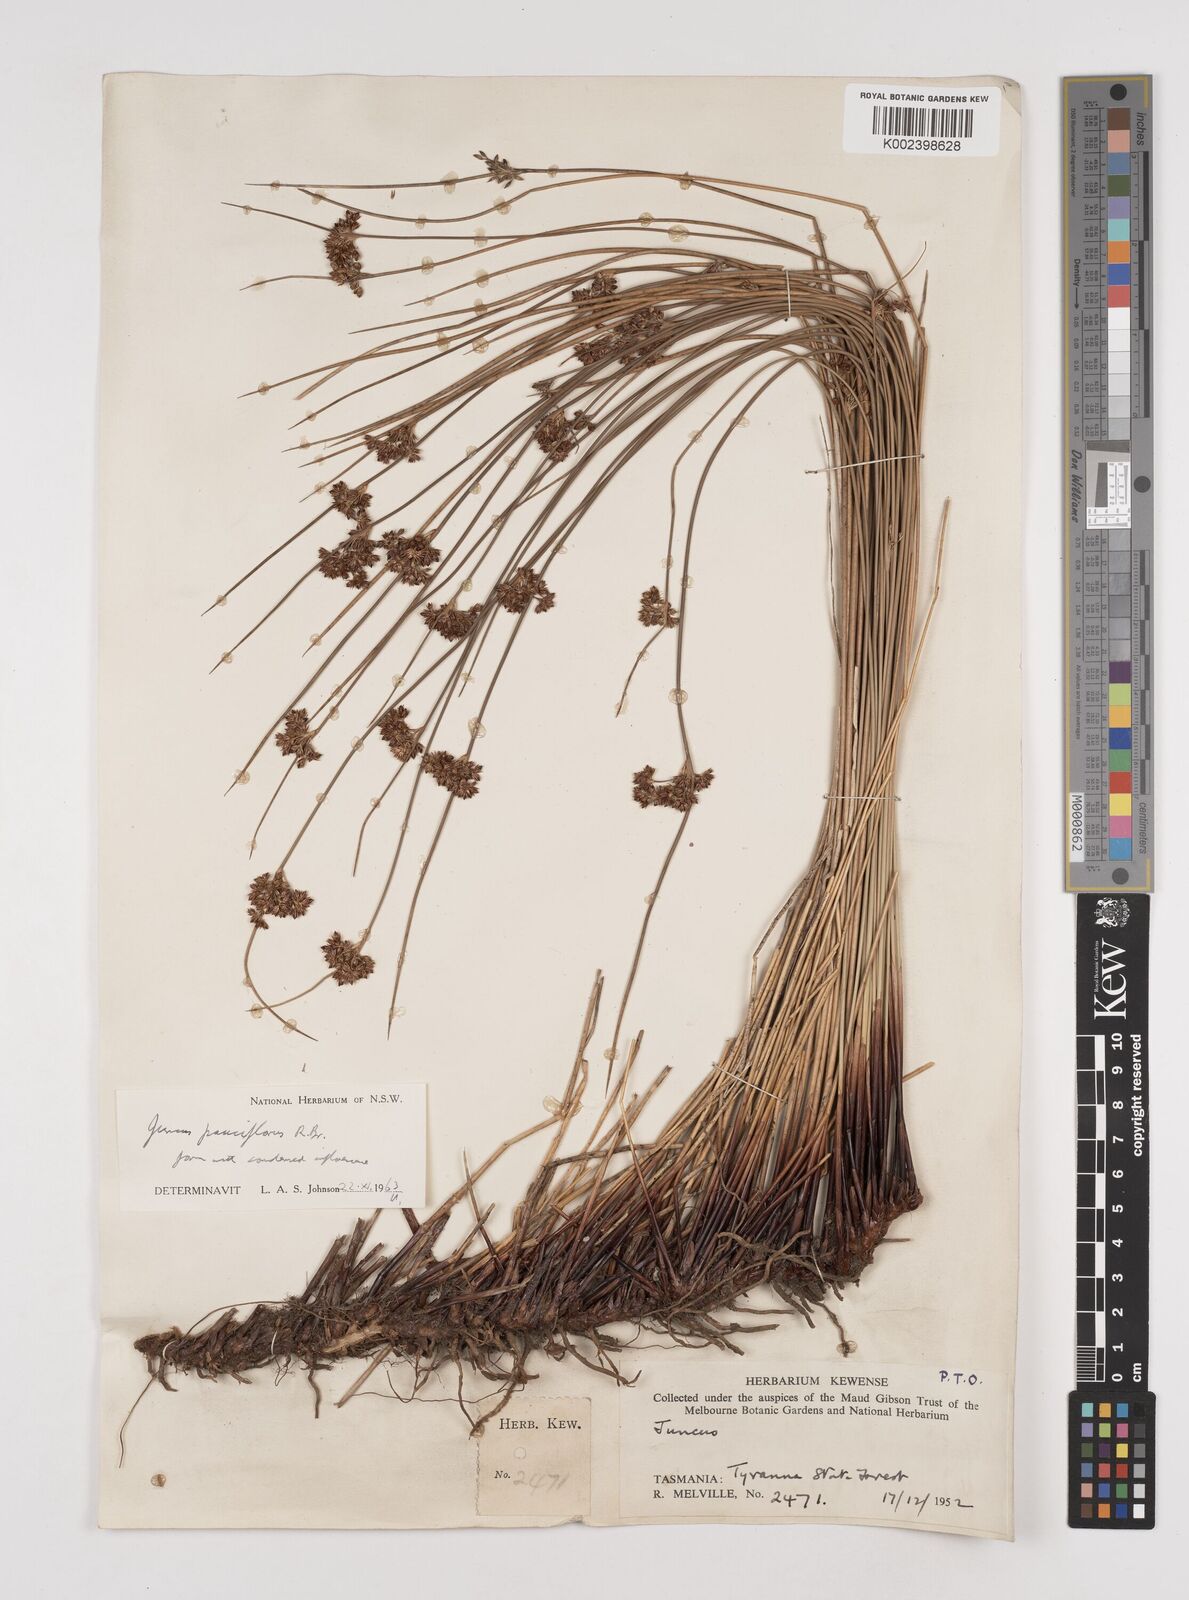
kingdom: Plantae
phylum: Tracheophyta
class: Liliopsida
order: Poales
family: Juncaceae
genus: Juncus
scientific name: Juncus pauciflorus
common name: Loose-flowered rush
